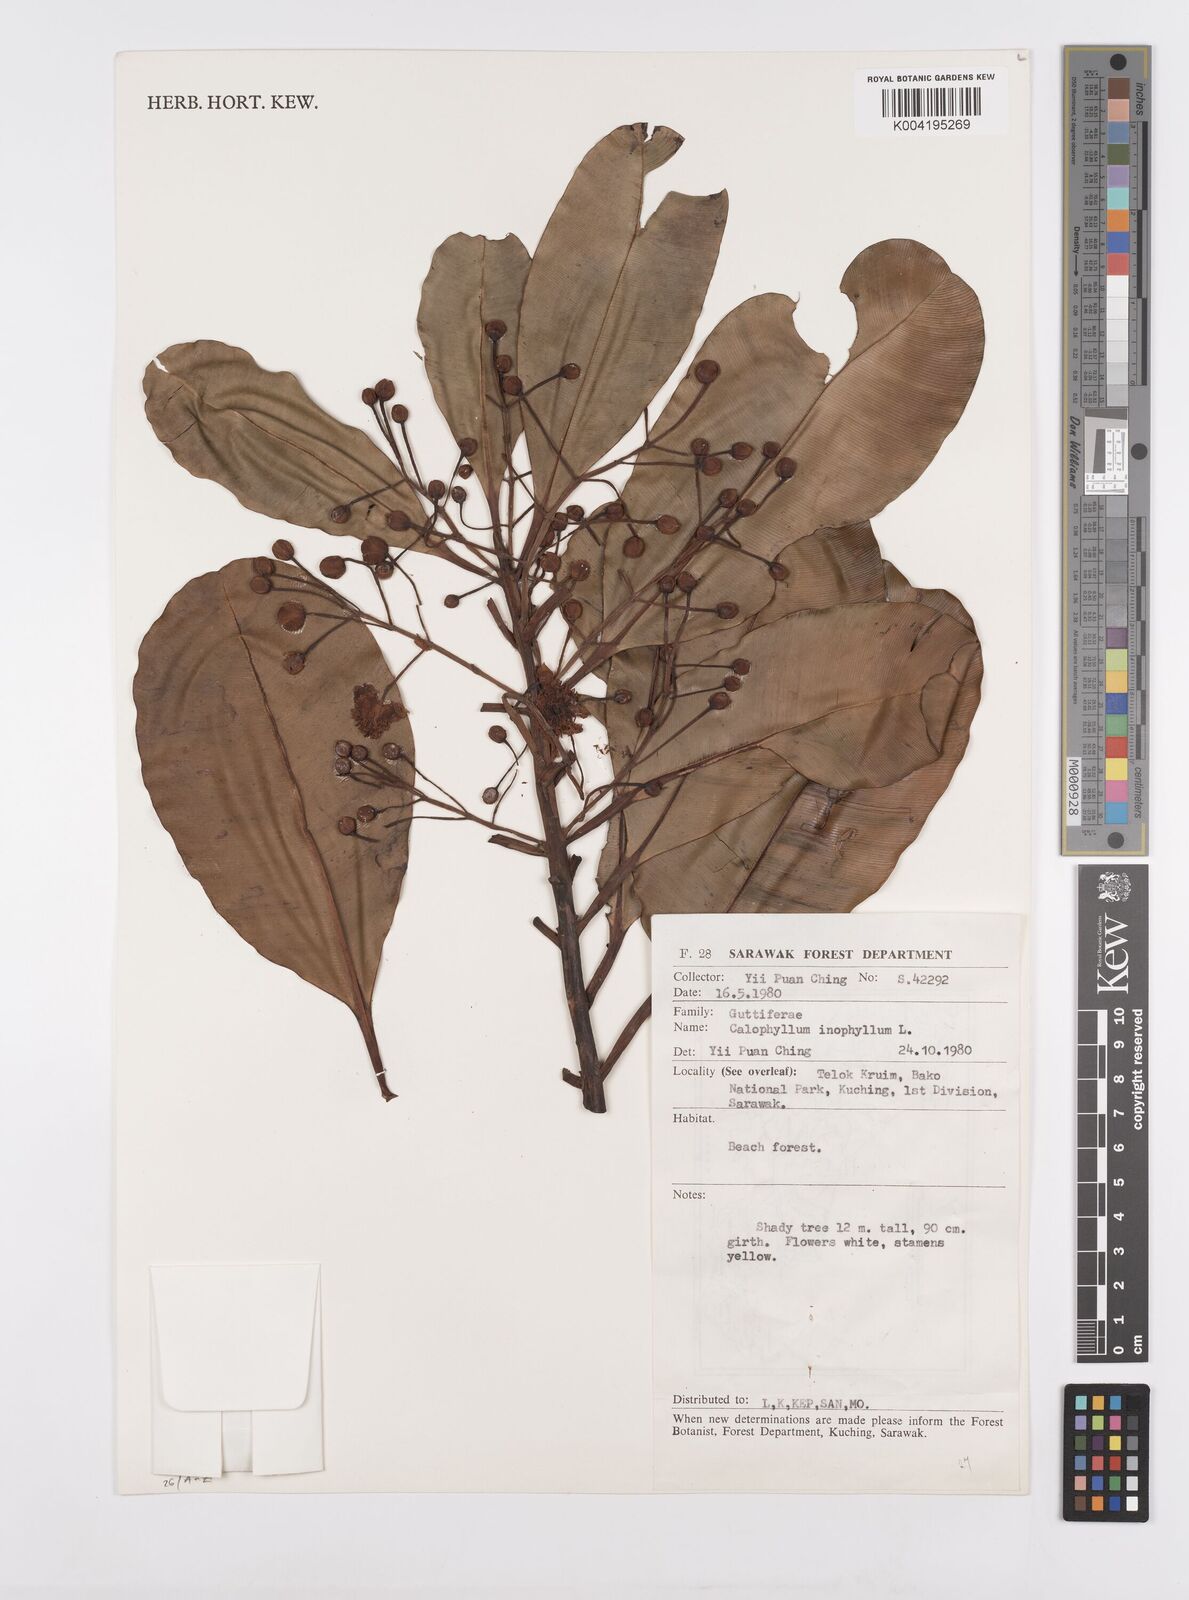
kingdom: Plantae
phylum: Tracheophyta
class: Magnoliopsida
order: Malpighiales
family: Calophyllaceae
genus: Calophyllum
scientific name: Calophyllum inophyllum
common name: Alexandrian laurel
